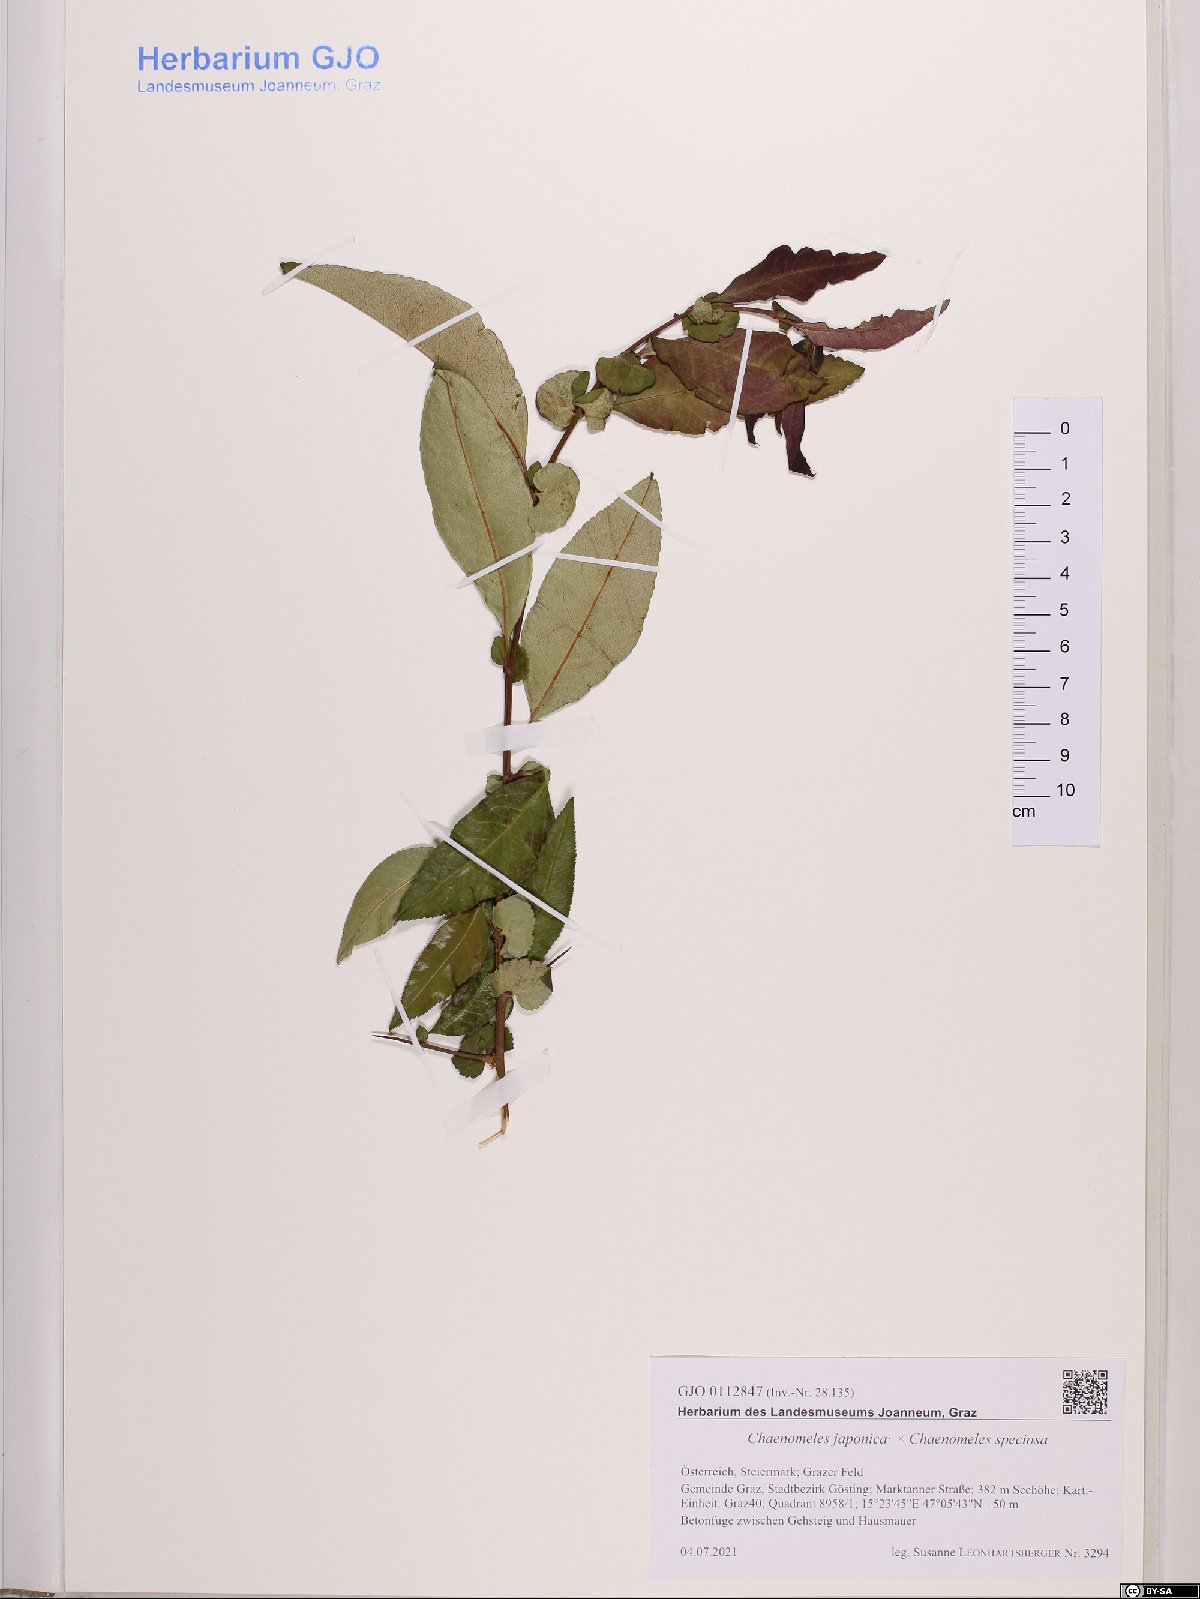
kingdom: Plantae
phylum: Tracheophyta
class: Magnoliopsida
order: Rosales
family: Rosaceae
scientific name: Rosaceae
